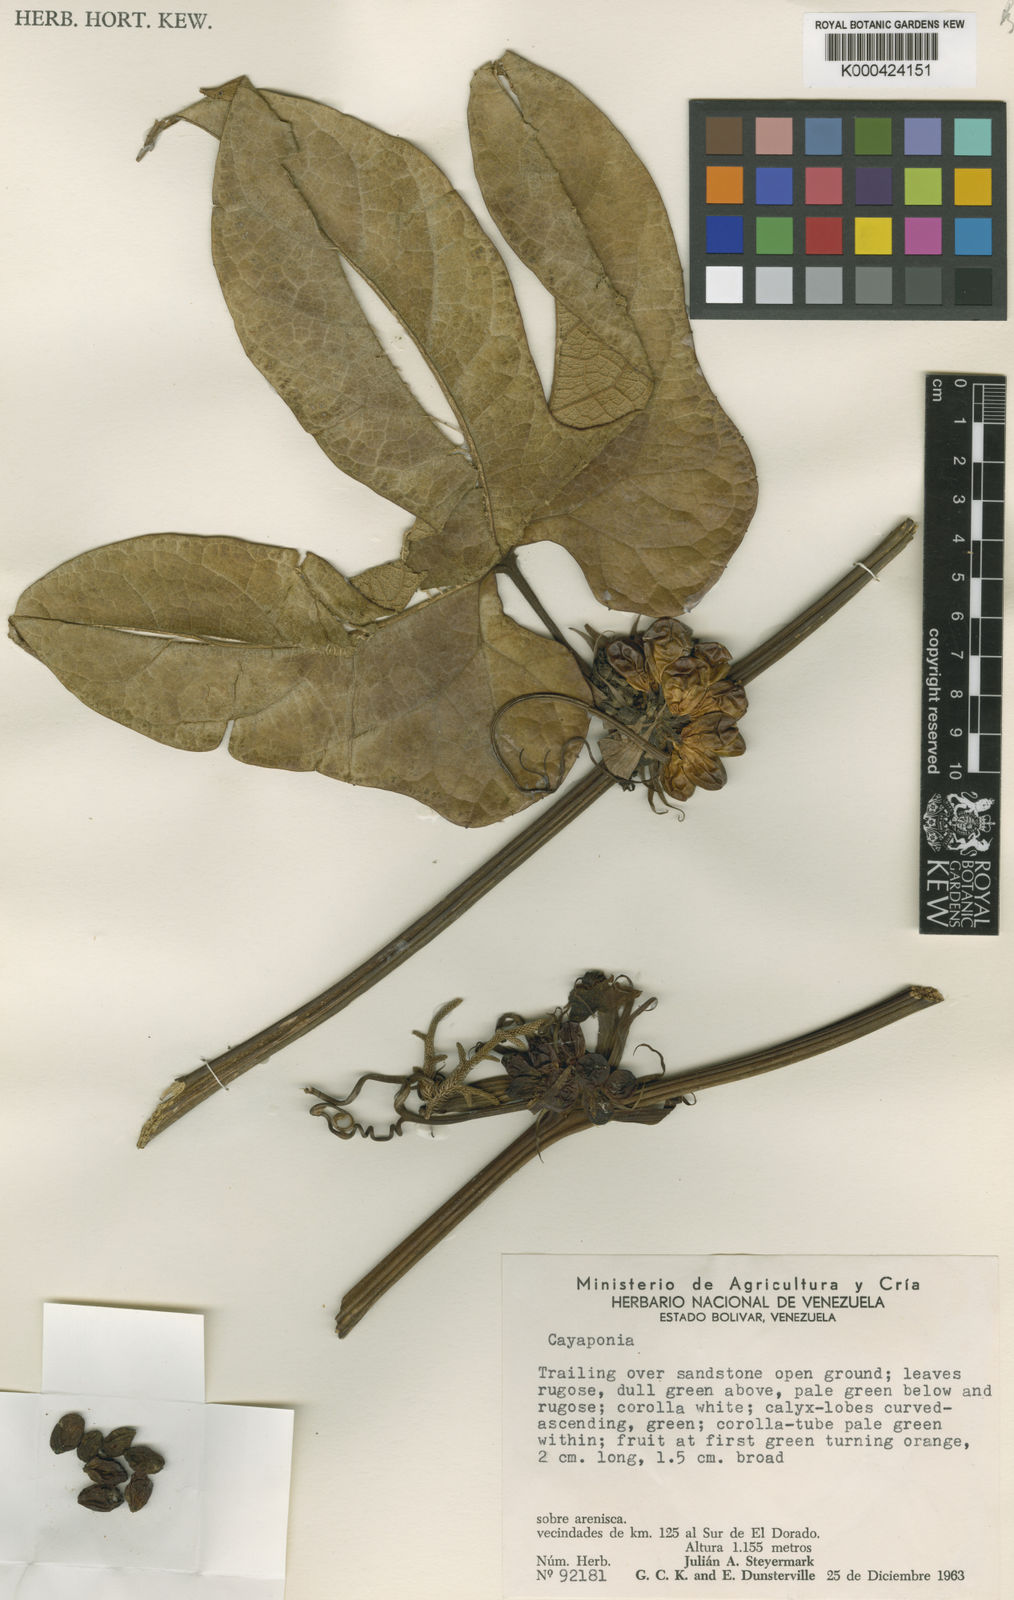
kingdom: Plantae
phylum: Tracheophyta
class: Magnoliopsida
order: Cucurbitales
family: Cucurbitaceae
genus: Cayaponia
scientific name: Cayaponia botryocarpa
